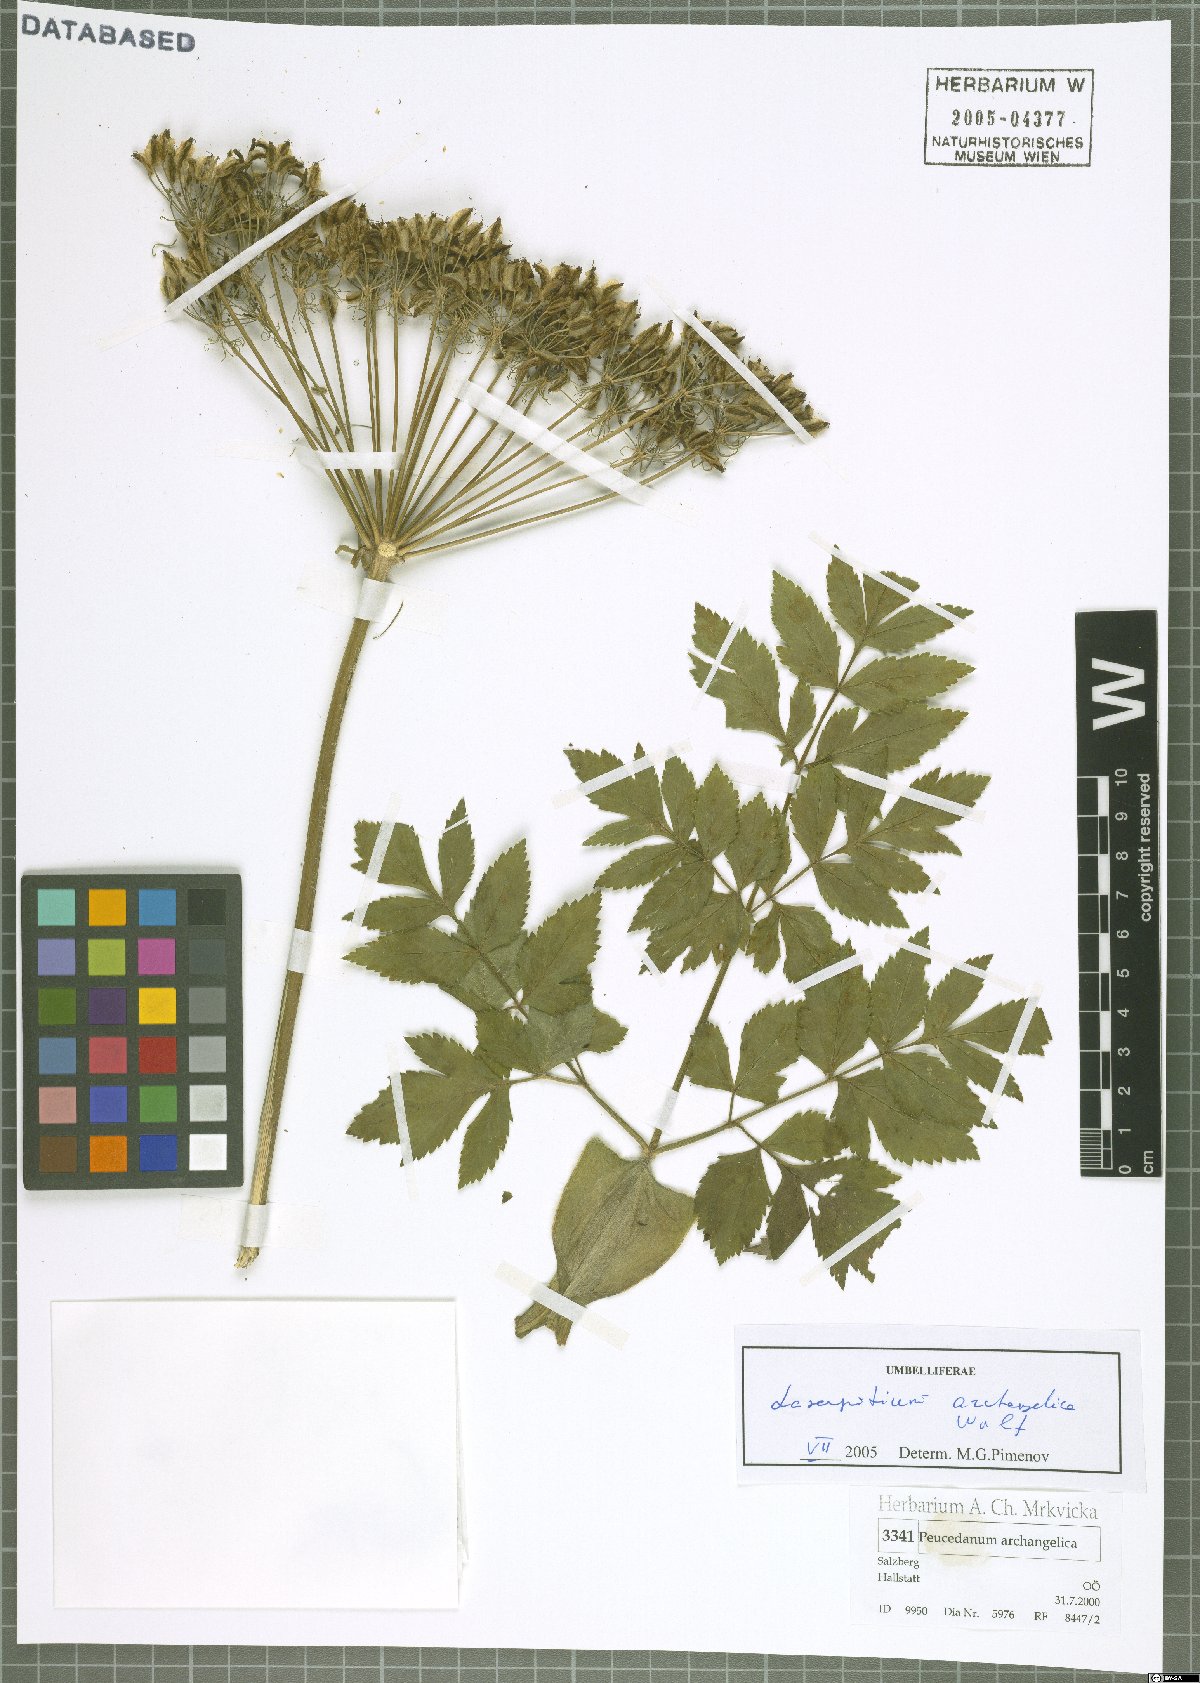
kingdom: Plantae
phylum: Tracheophyta
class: Magnoliopsida
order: Apiales
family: Apiaceae
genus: Laser
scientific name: Laser archangelica
